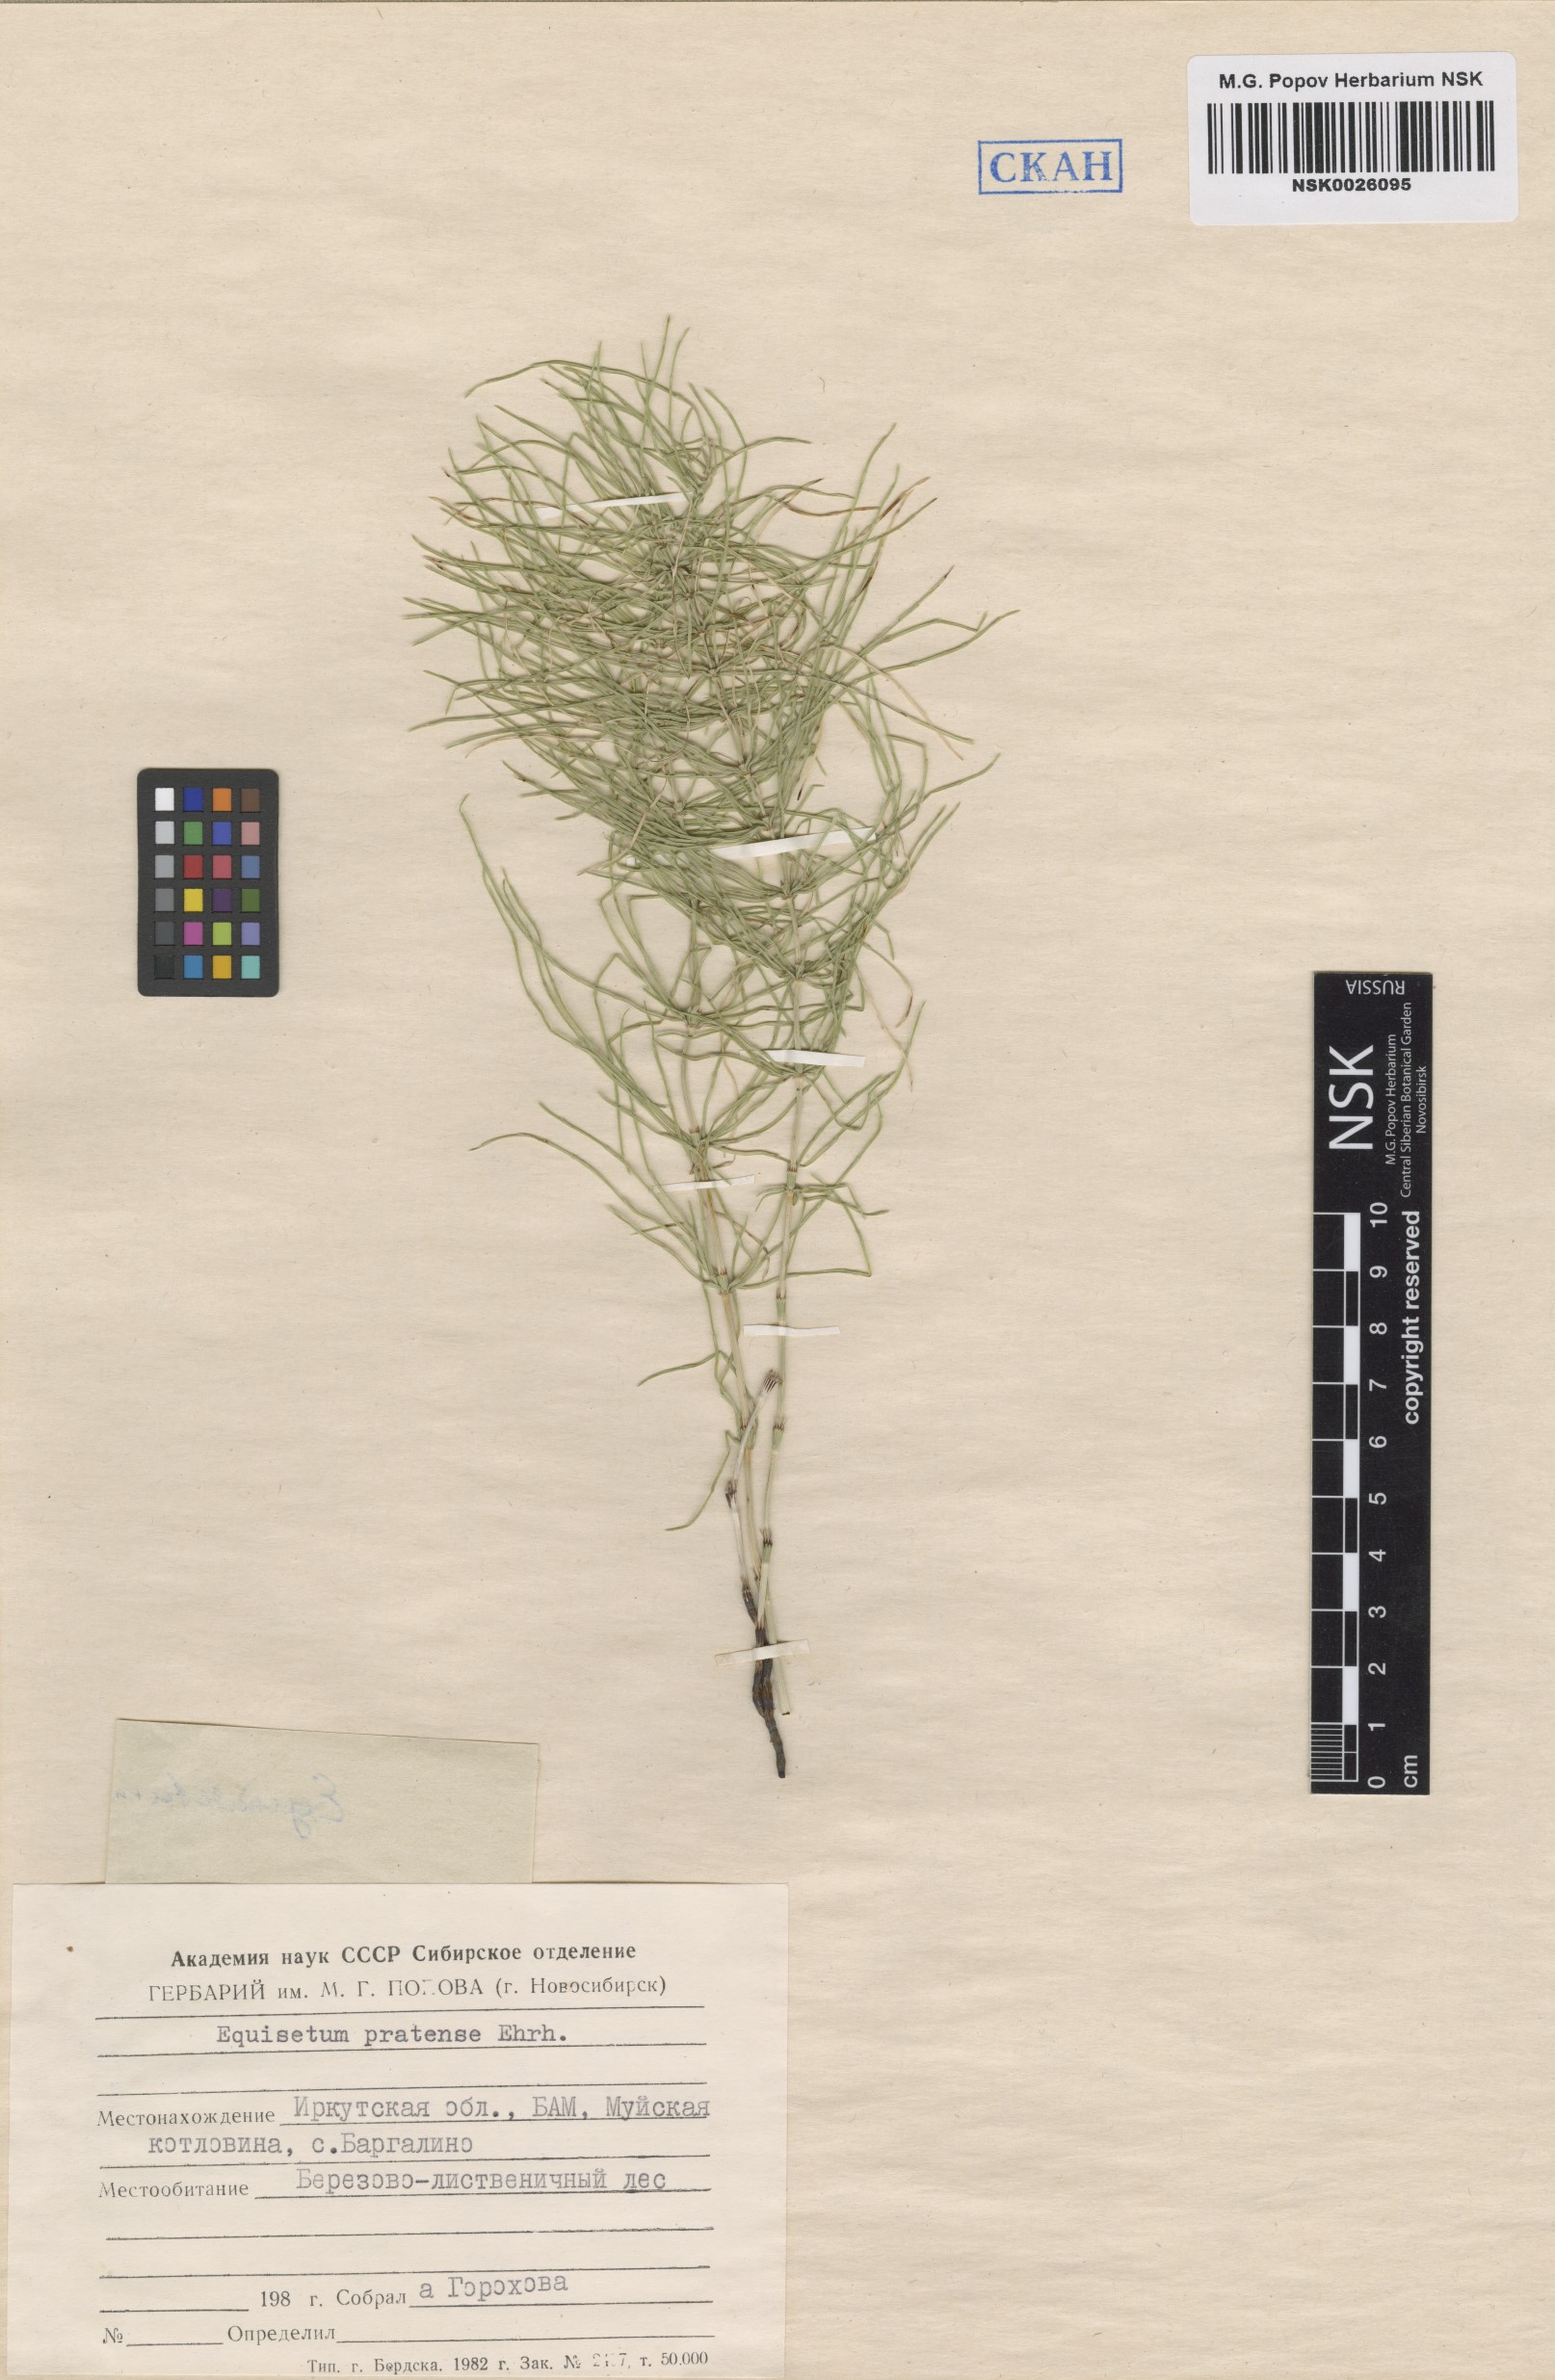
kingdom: Plantae
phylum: Tracheophyta
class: Polypodiopsida
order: Equisetales
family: Equisetaceae
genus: Equisetum
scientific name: Equisetum pratense
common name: Meadow horsetail
